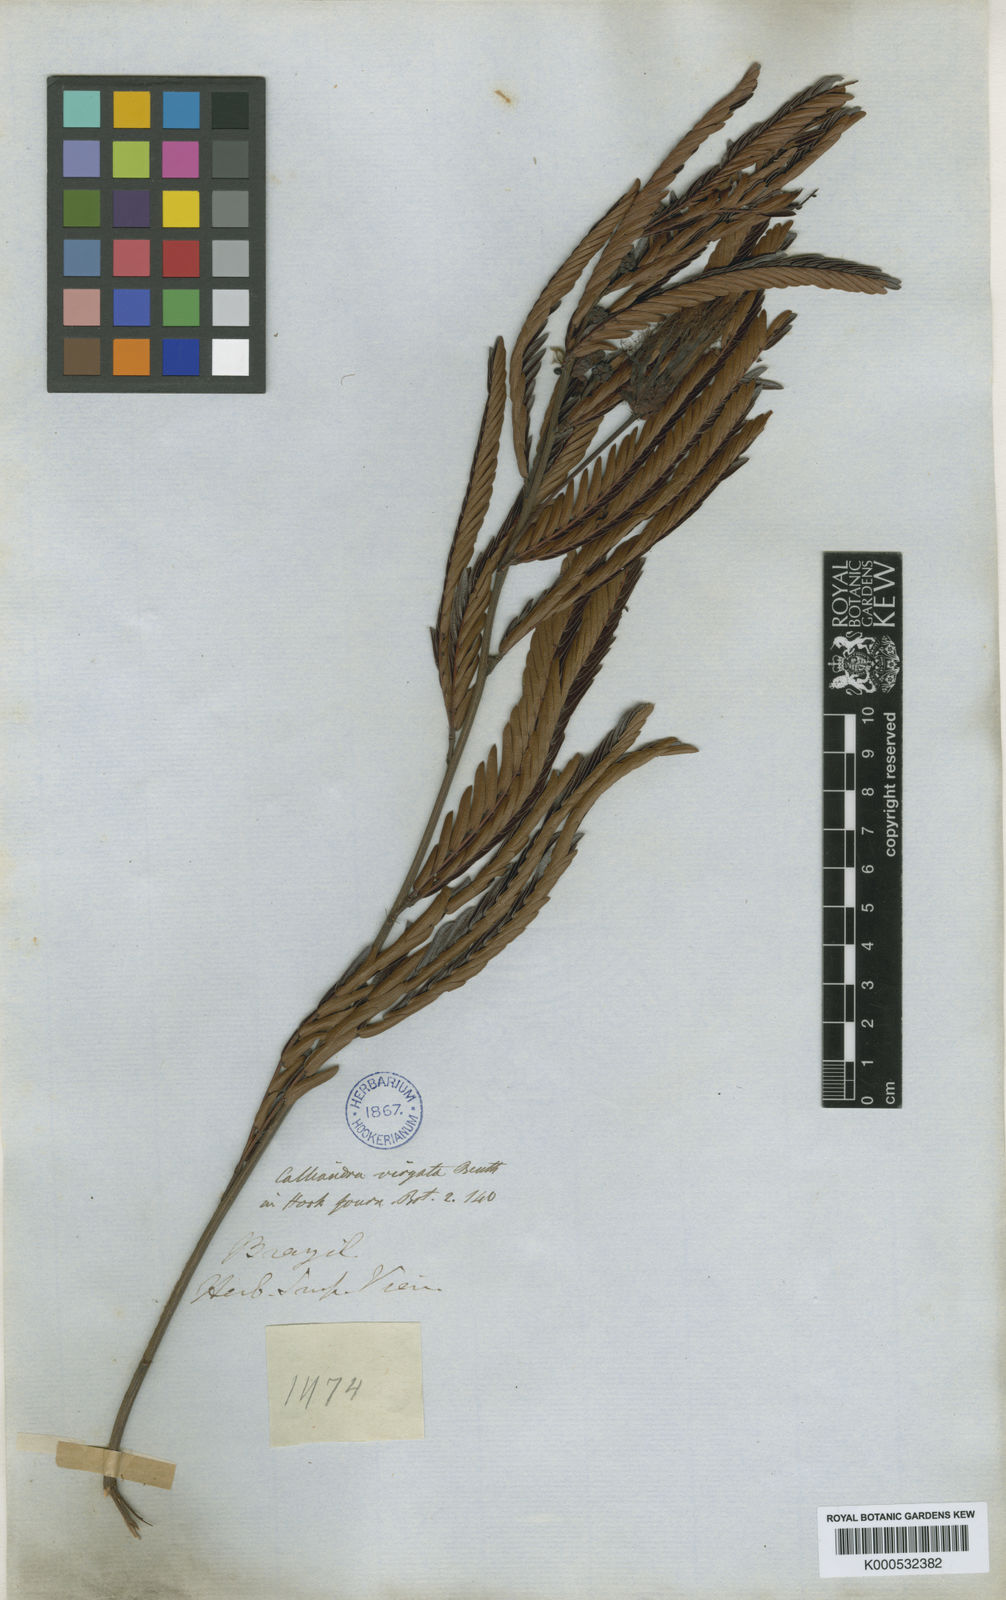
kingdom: Plantae
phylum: Tracheophyta
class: Magnoliopsida
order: Fabales
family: Fabaceae
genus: Calliandra
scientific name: Calliandra virgata
